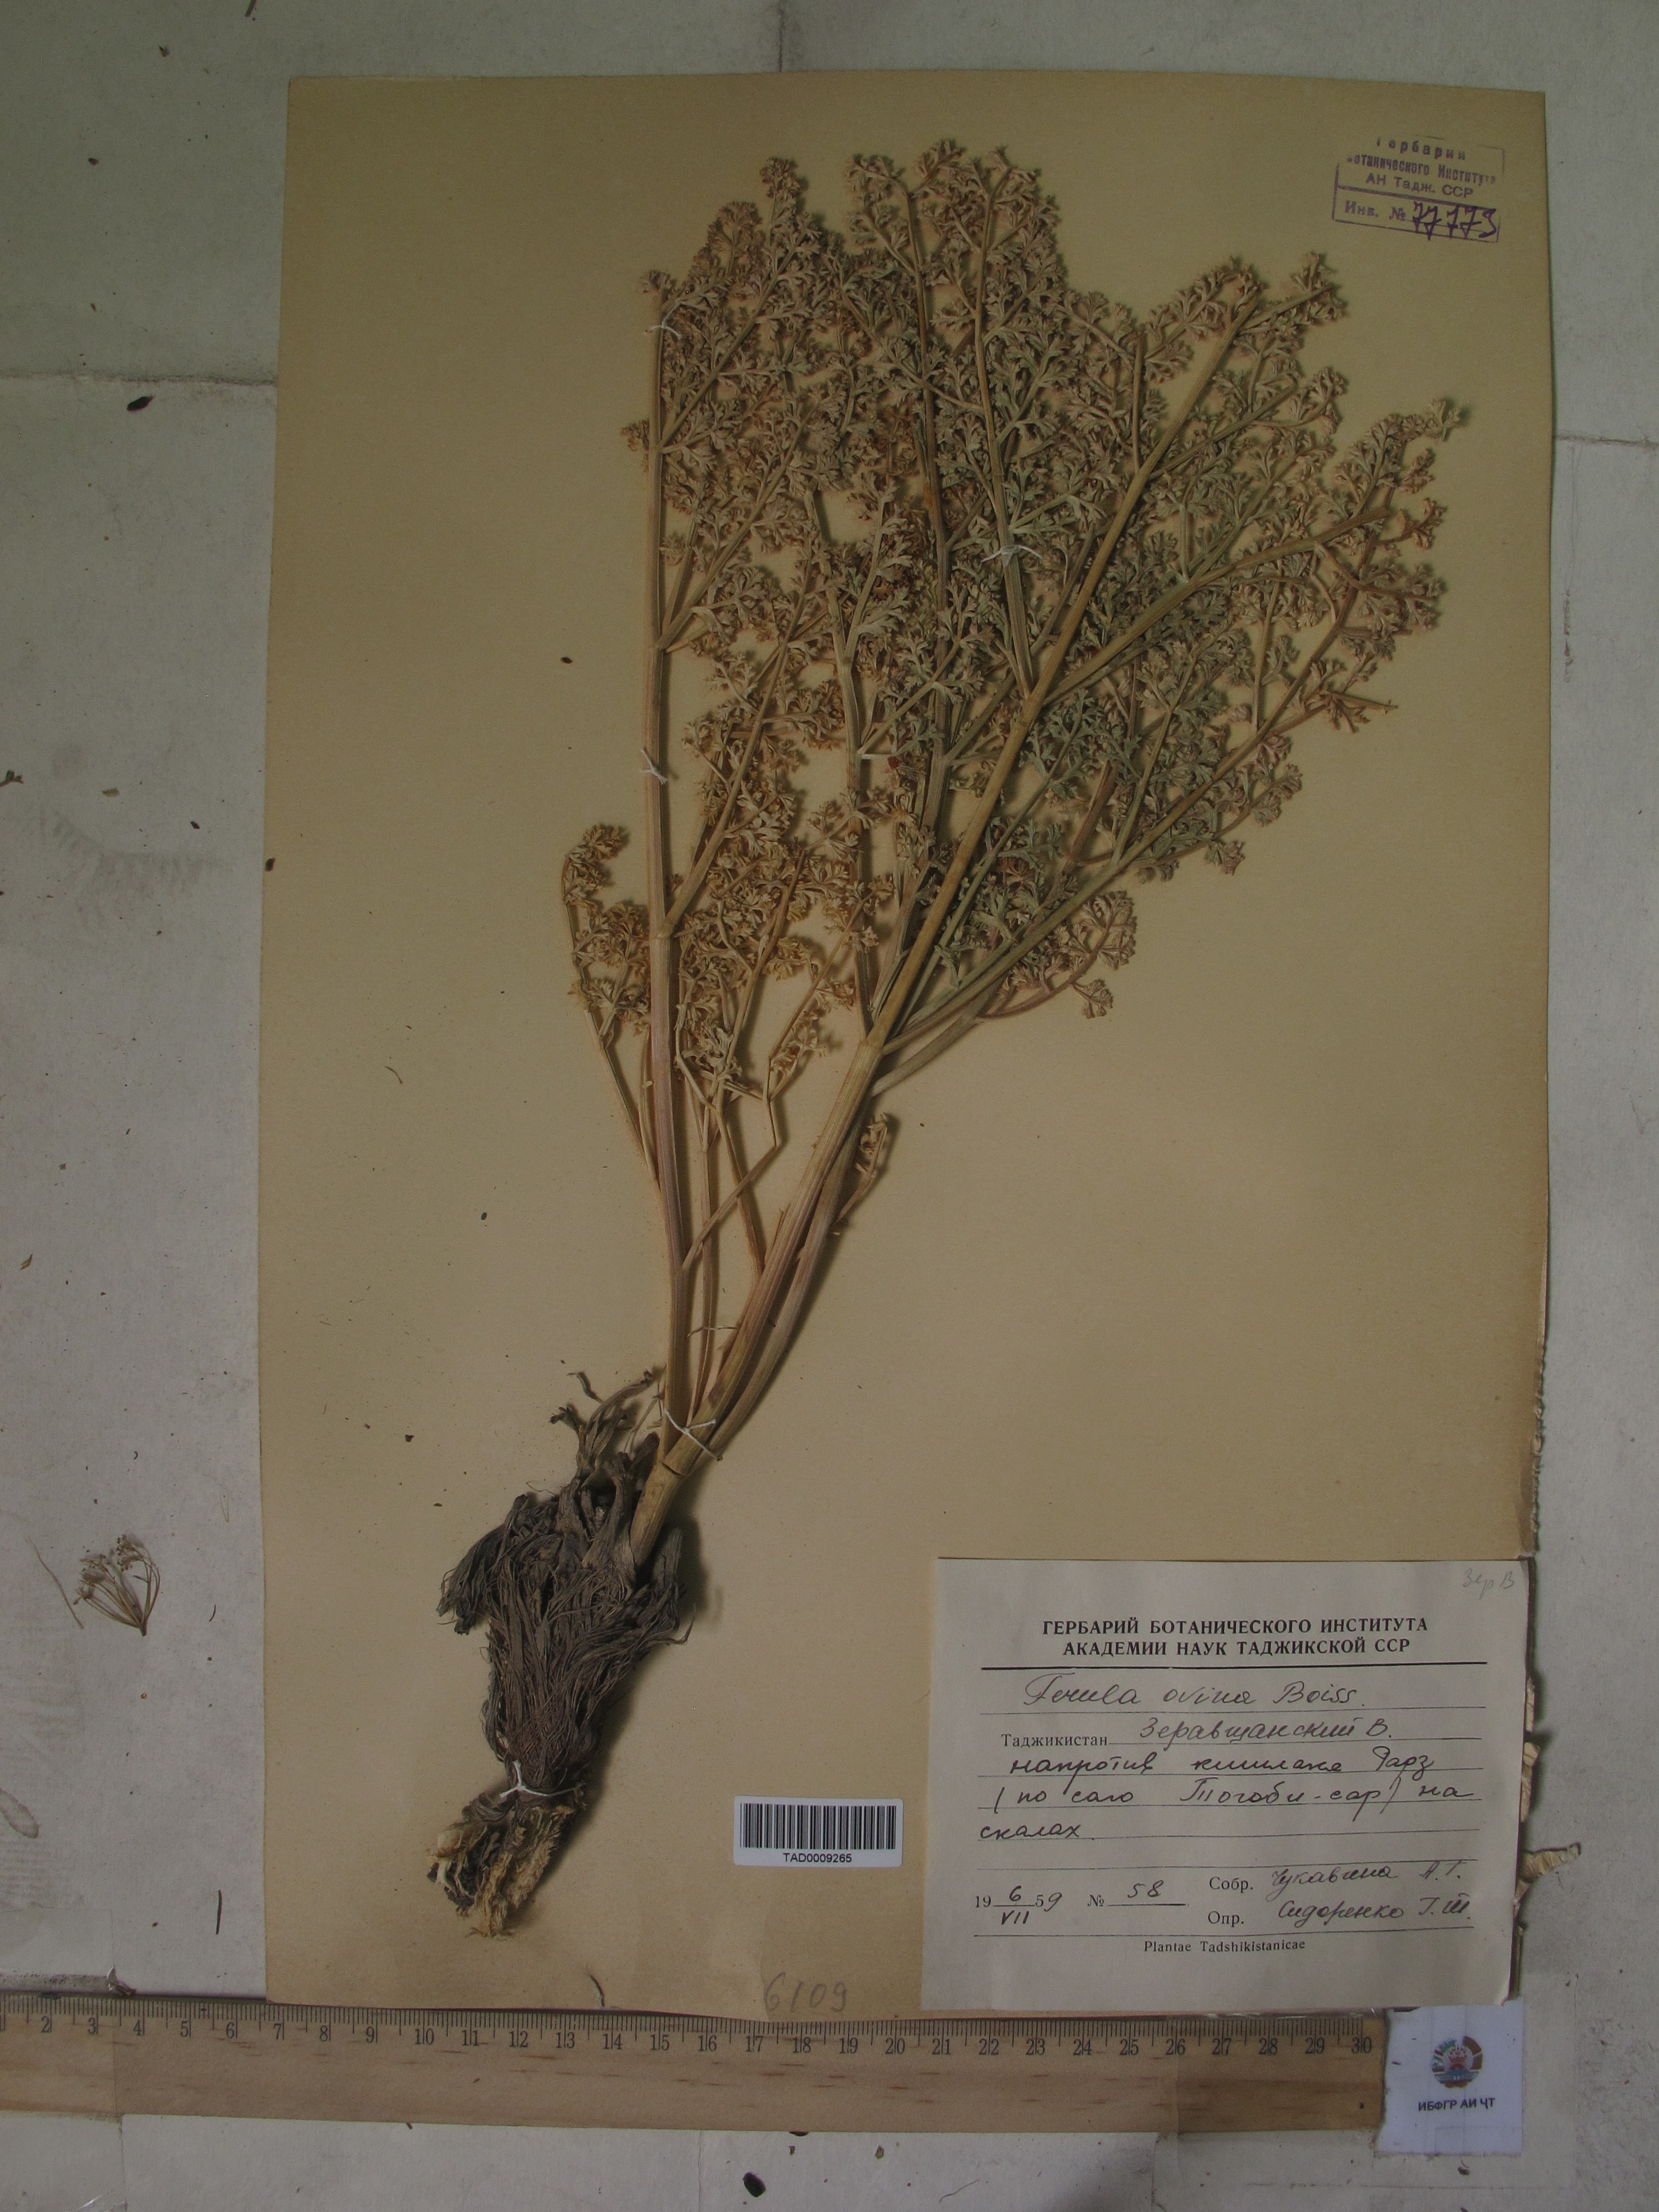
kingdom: Plantae
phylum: Tracheophyta
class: Magnoliopsida
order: Apiales
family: Apiaceae
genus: Ferula
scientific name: Ferula ovina
